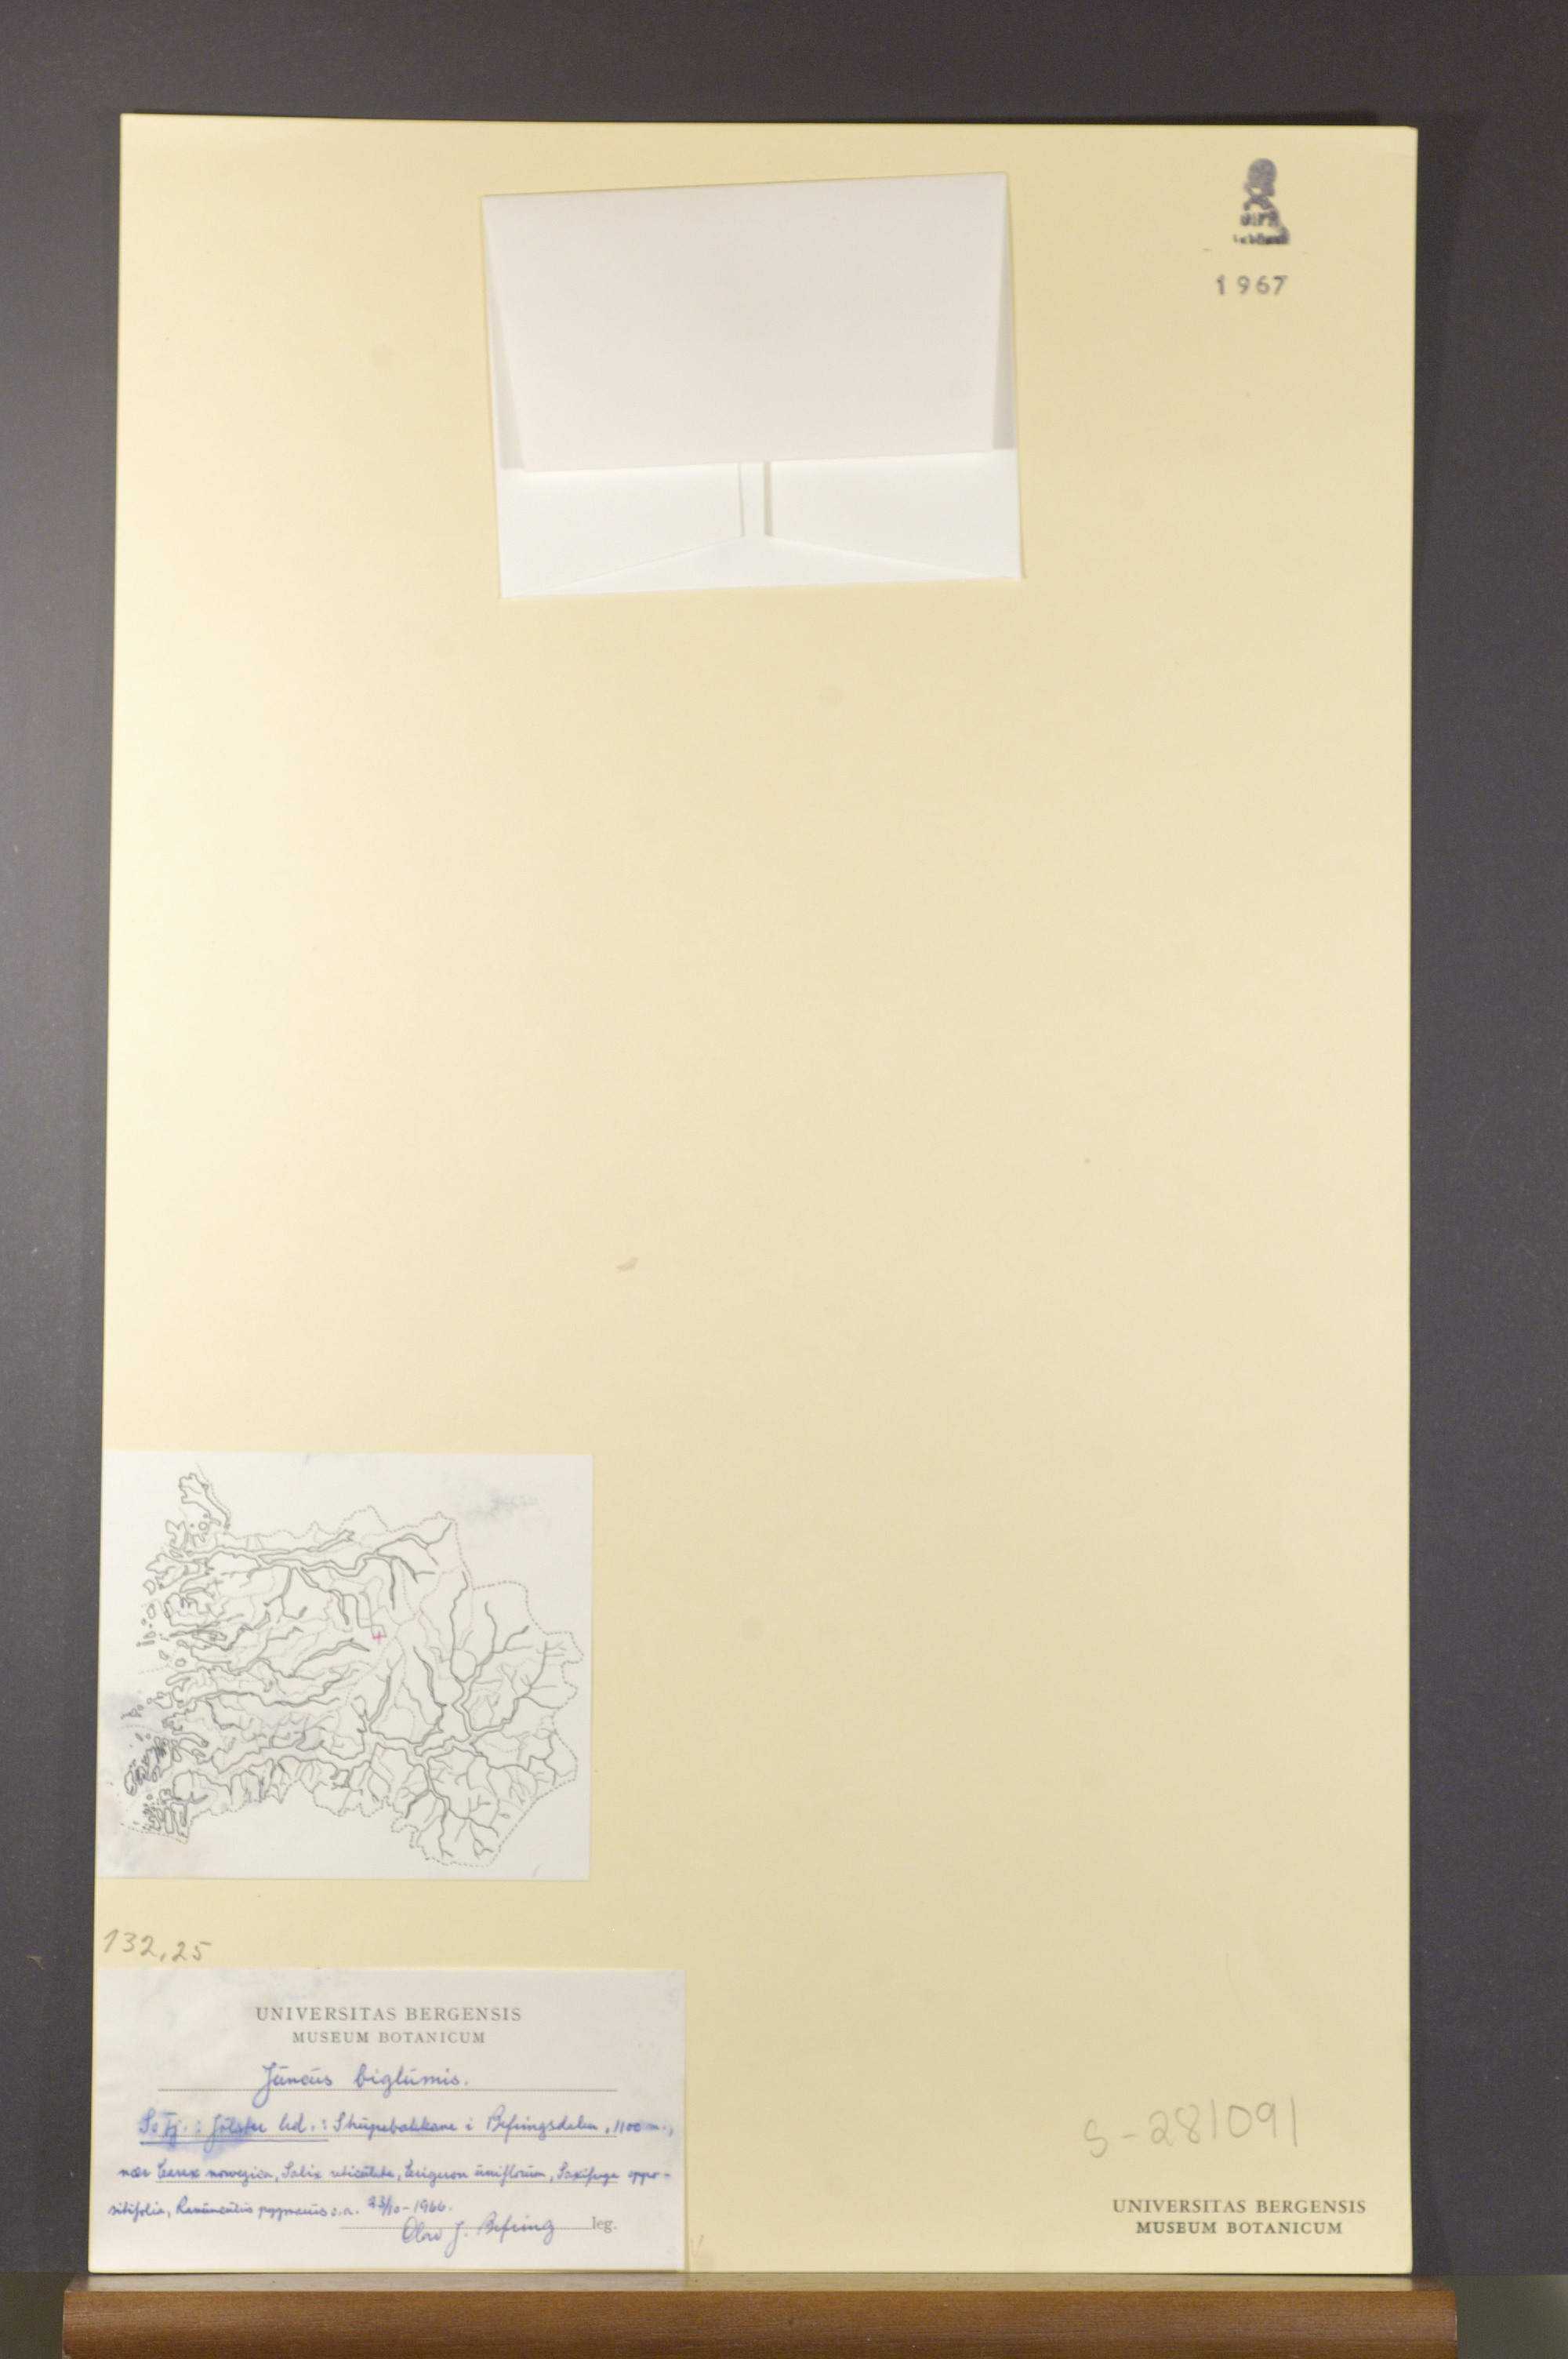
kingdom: Plantae
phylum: Tracheophyta
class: Liliopsida
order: Poales
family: Juncaceae
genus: Juncus
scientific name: Juncus biglumis
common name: Two-flowered rush
